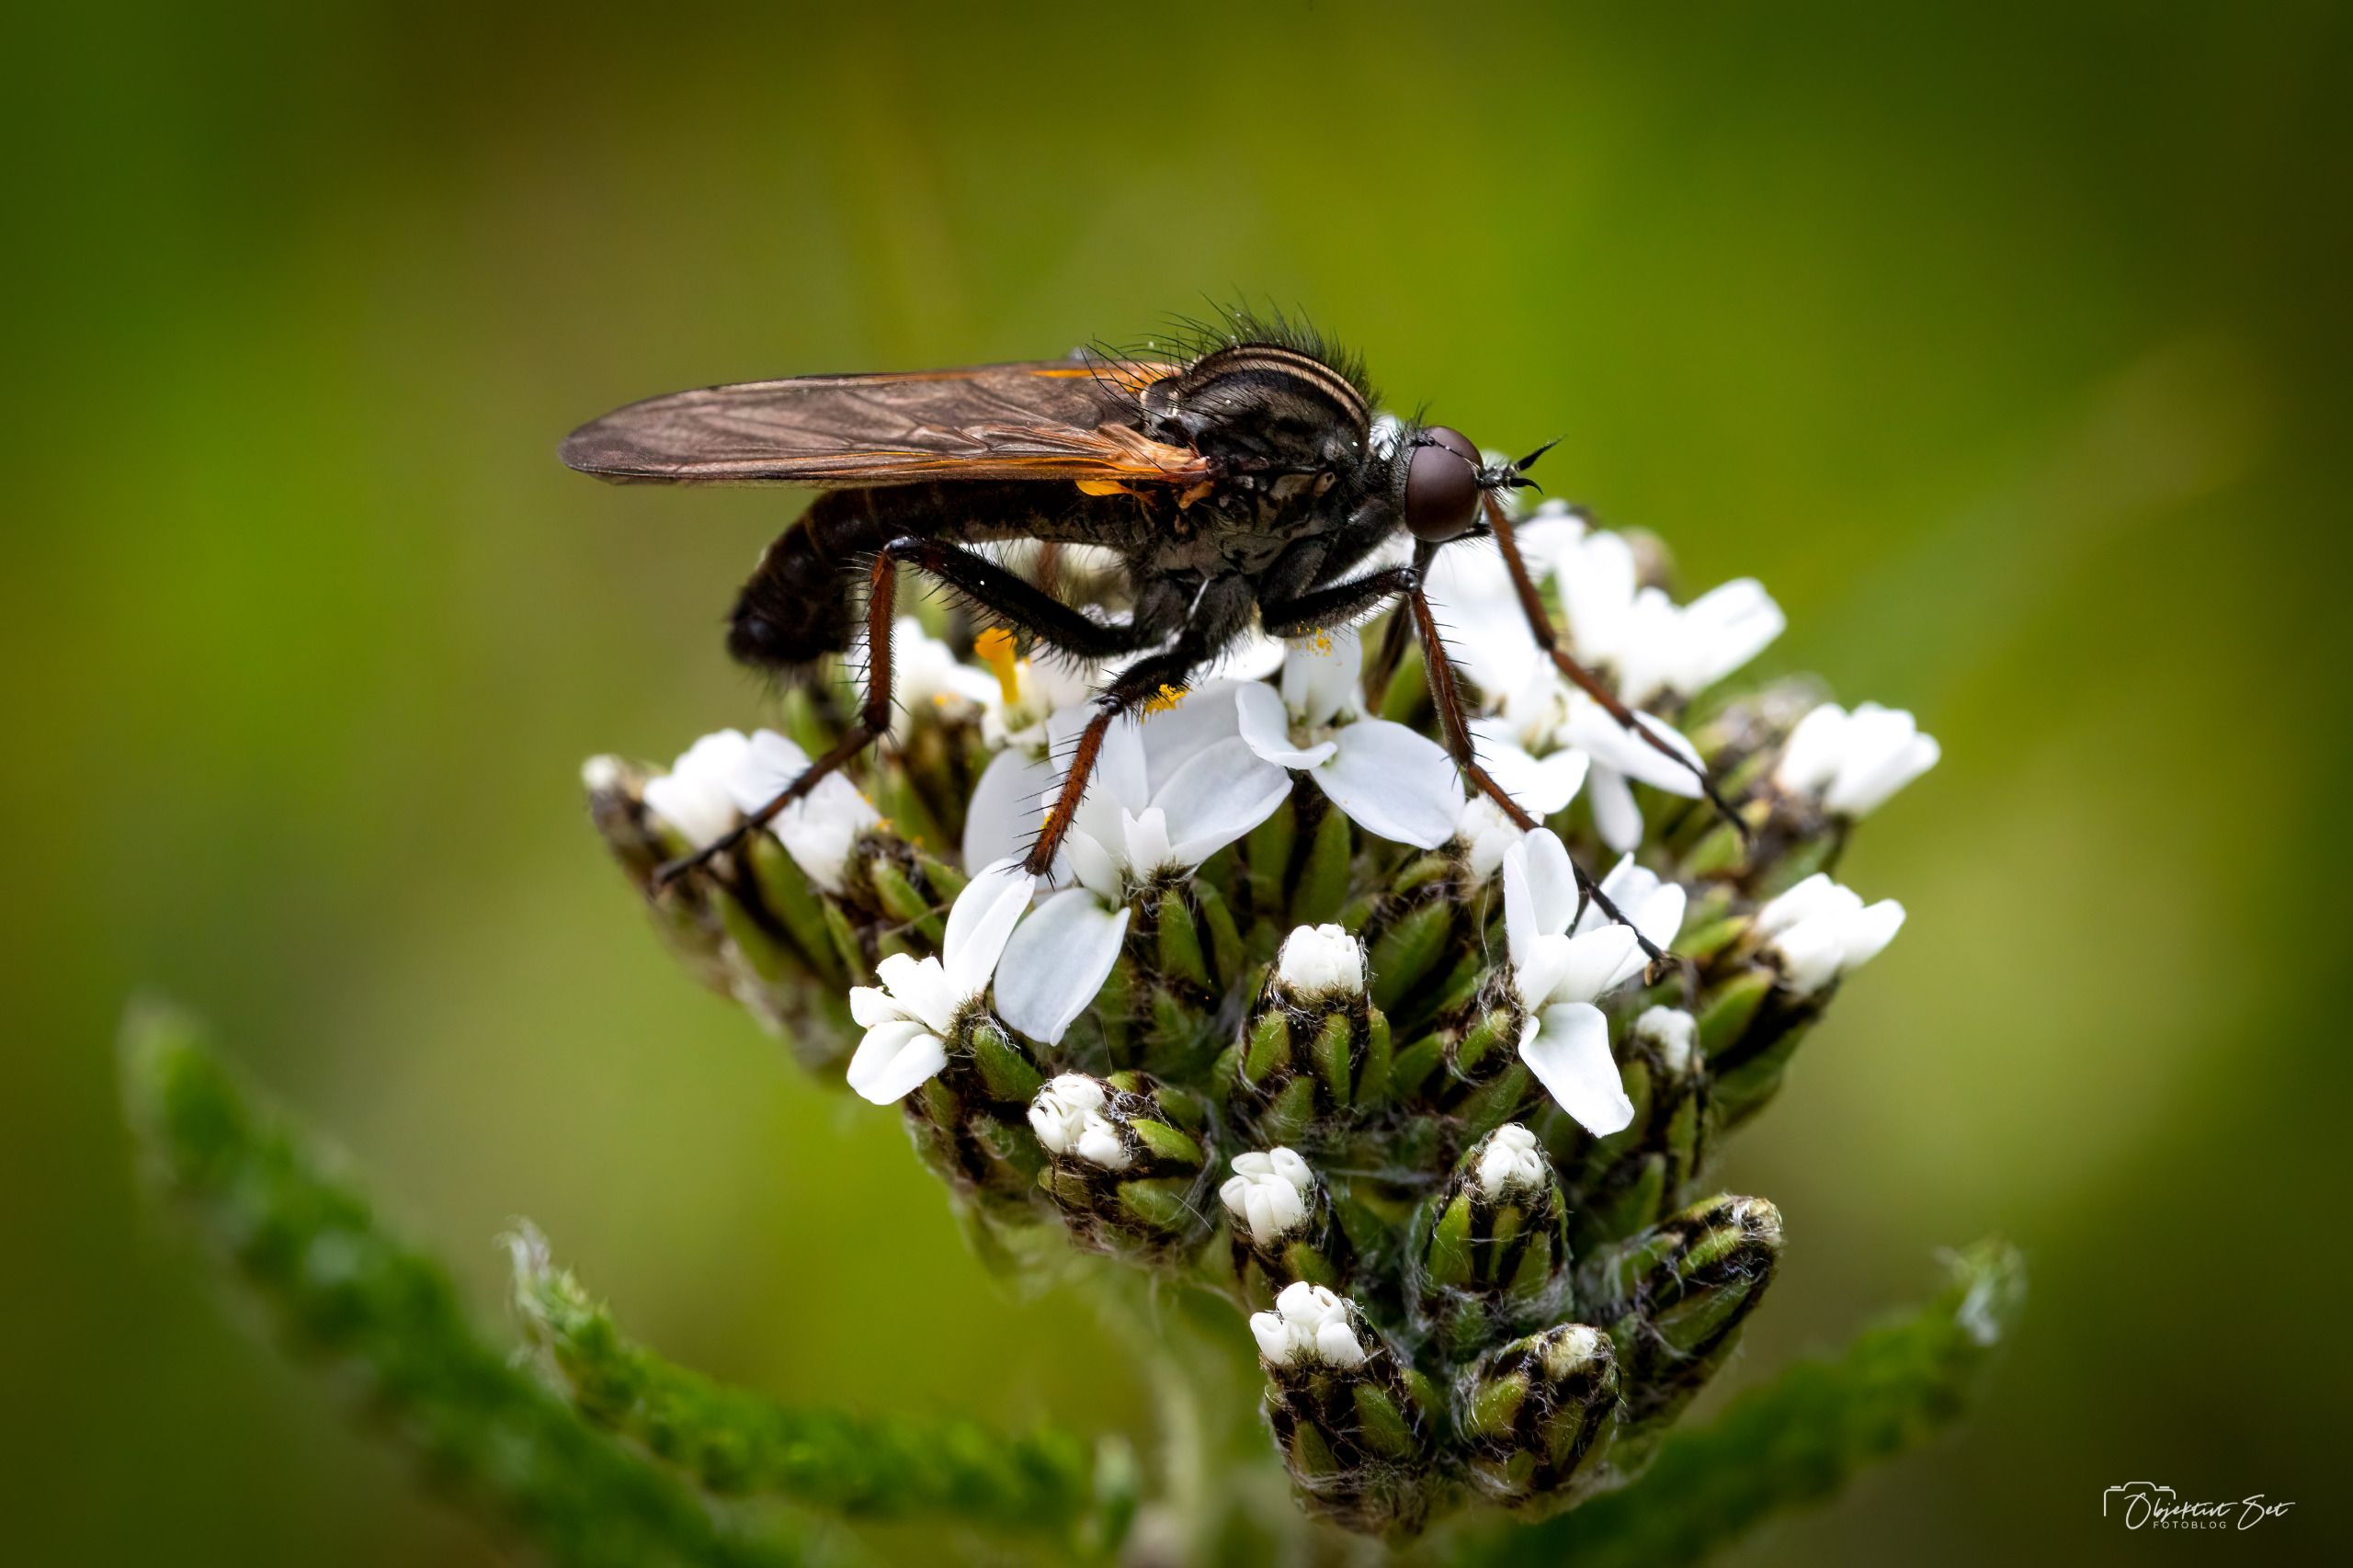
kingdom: Animalia
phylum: Arthropoda
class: Insecta
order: Diptera
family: Empididae
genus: Empis
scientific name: Empis tessellata
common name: Stor danseflue
